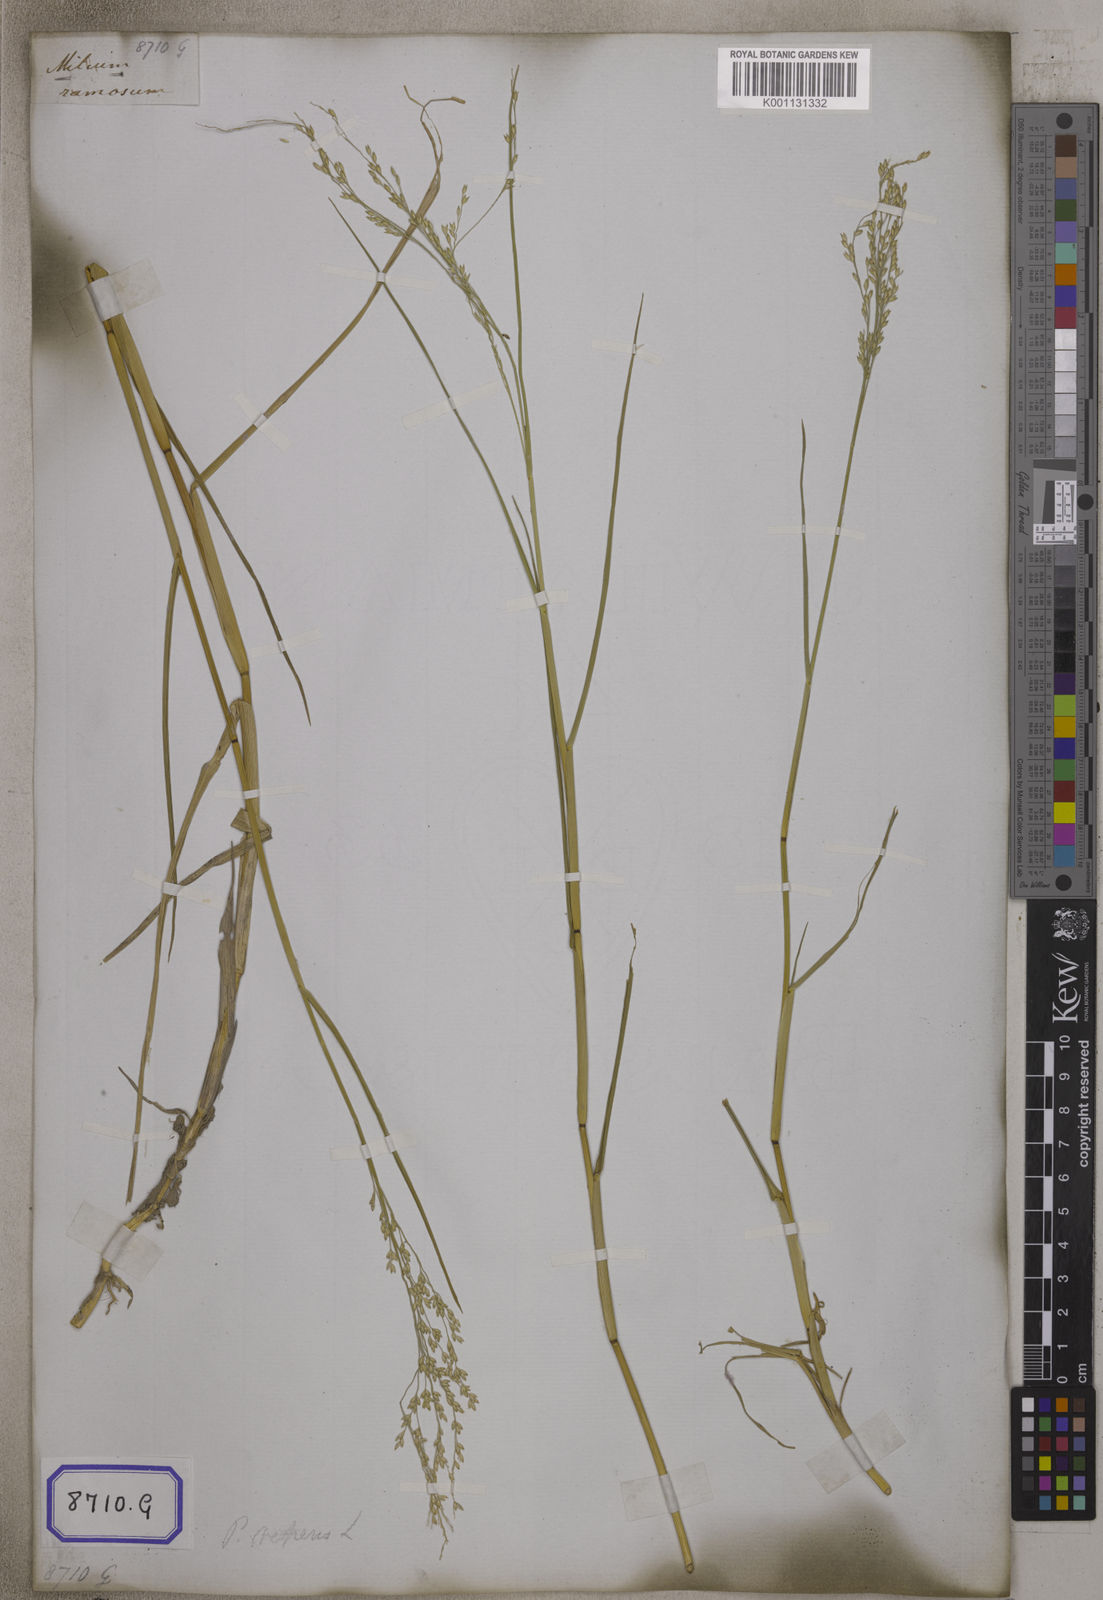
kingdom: Plantae
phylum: Tracheophyta
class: Liliopsida
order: Poales
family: Poaceae
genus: Panicum
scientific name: Panicum repens
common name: Torpedo grass
